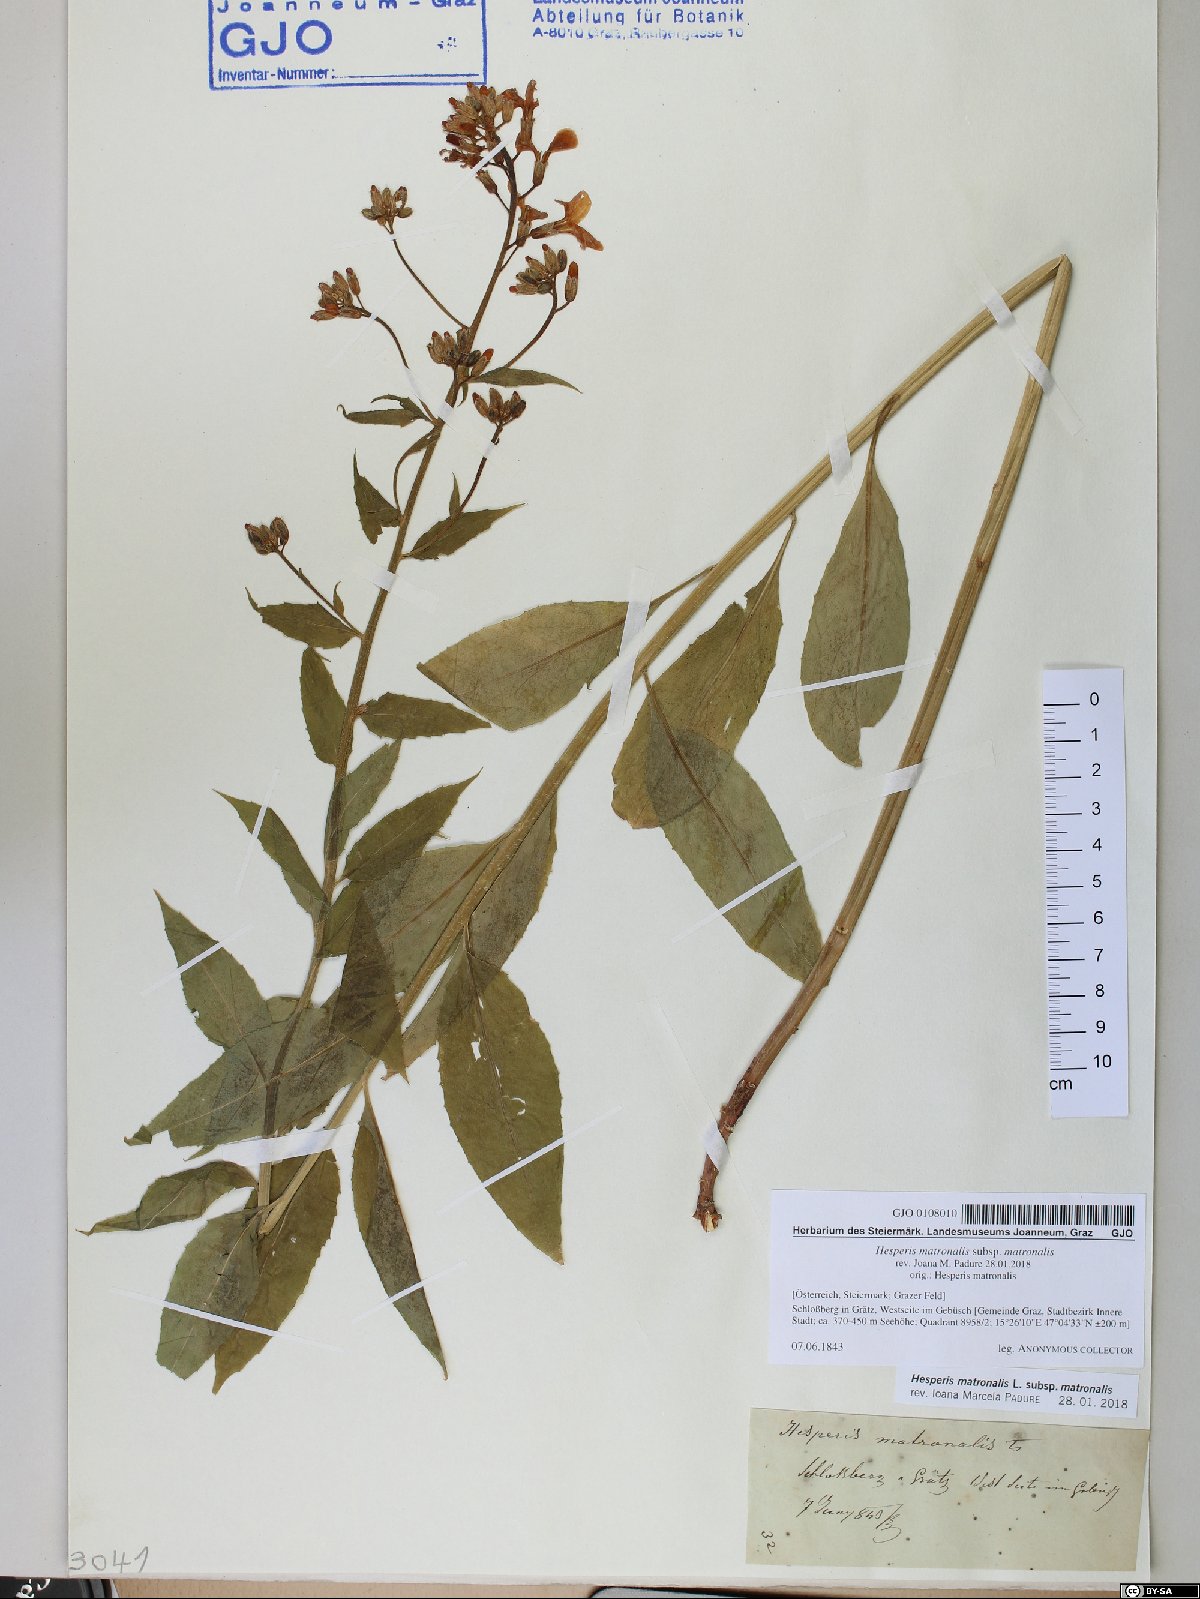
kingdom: Plantae
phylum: Tracheophyta
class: Magnoliopsida
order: Brassicales
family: Brassicaceae
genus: Hesperis
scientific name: Hesperis matronalis
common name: Dame's-violet
